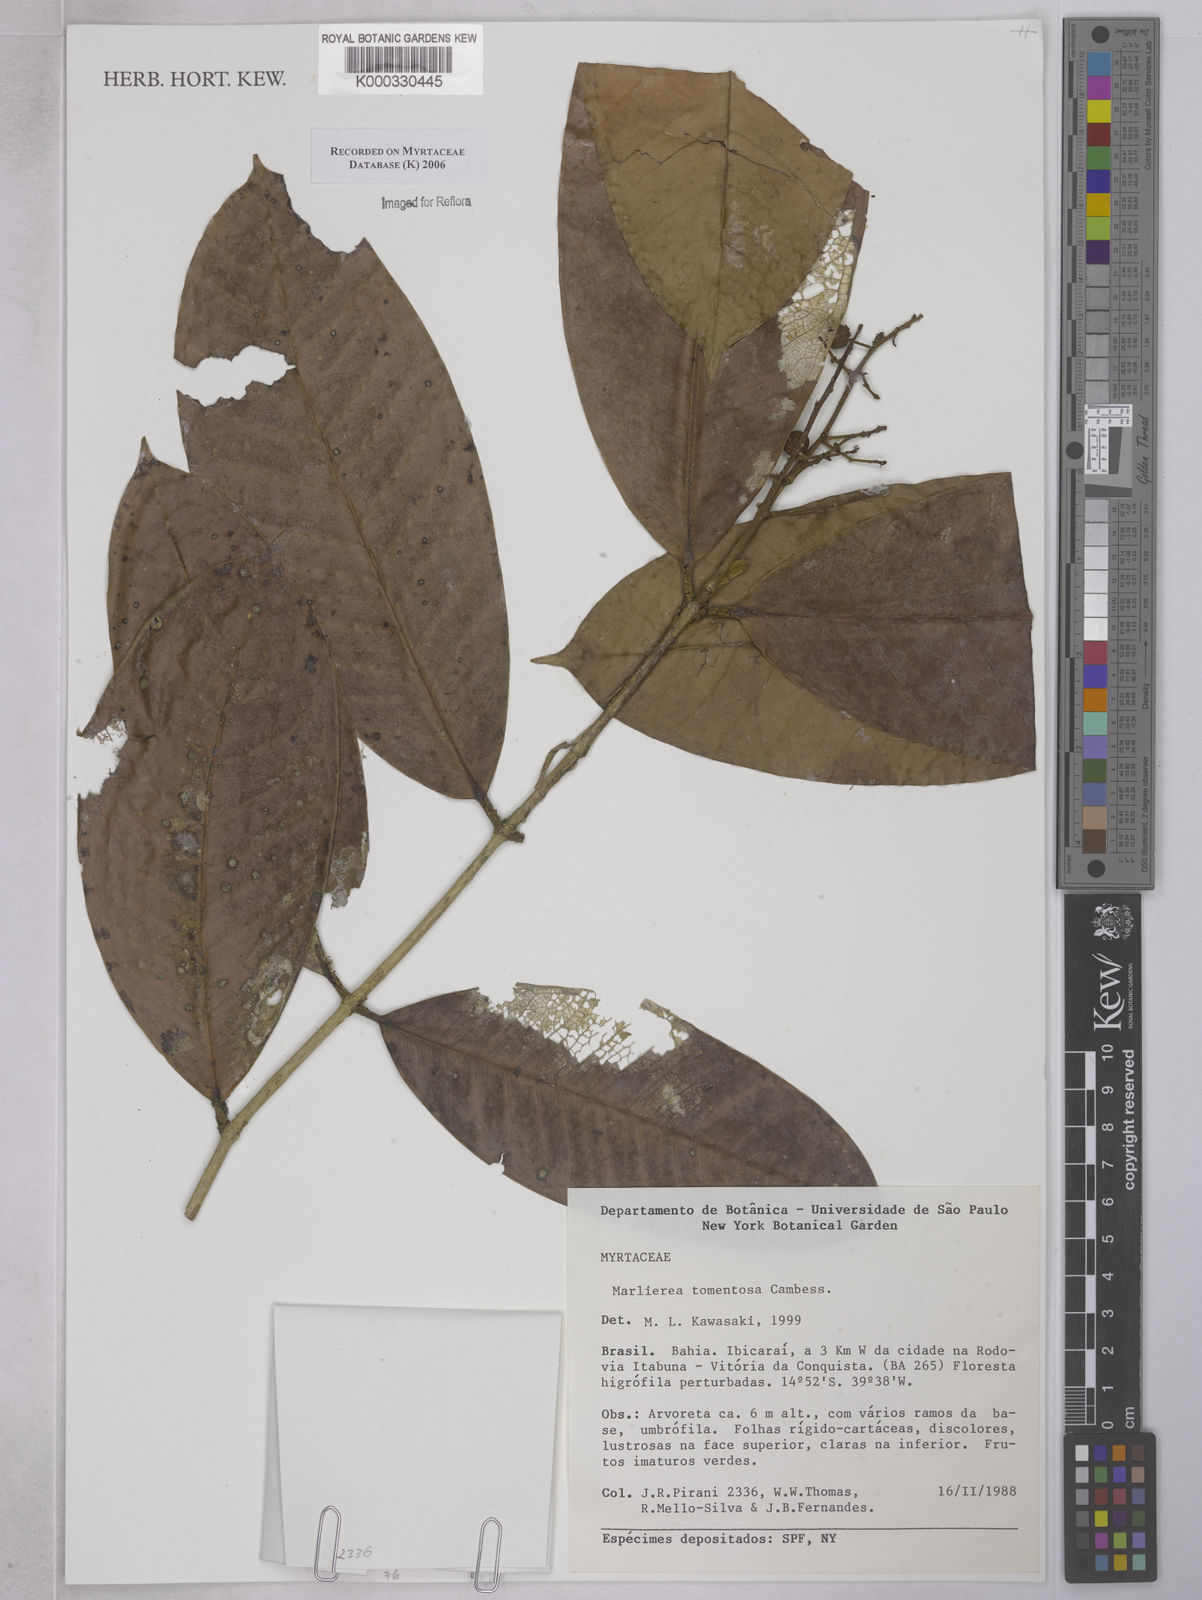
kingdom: Plantae
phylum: Tracheophyta
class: Magnoliopsida
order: Myrtales
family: Myrtaceae
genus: Myrcia
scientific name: Myrcia neotomentosa
